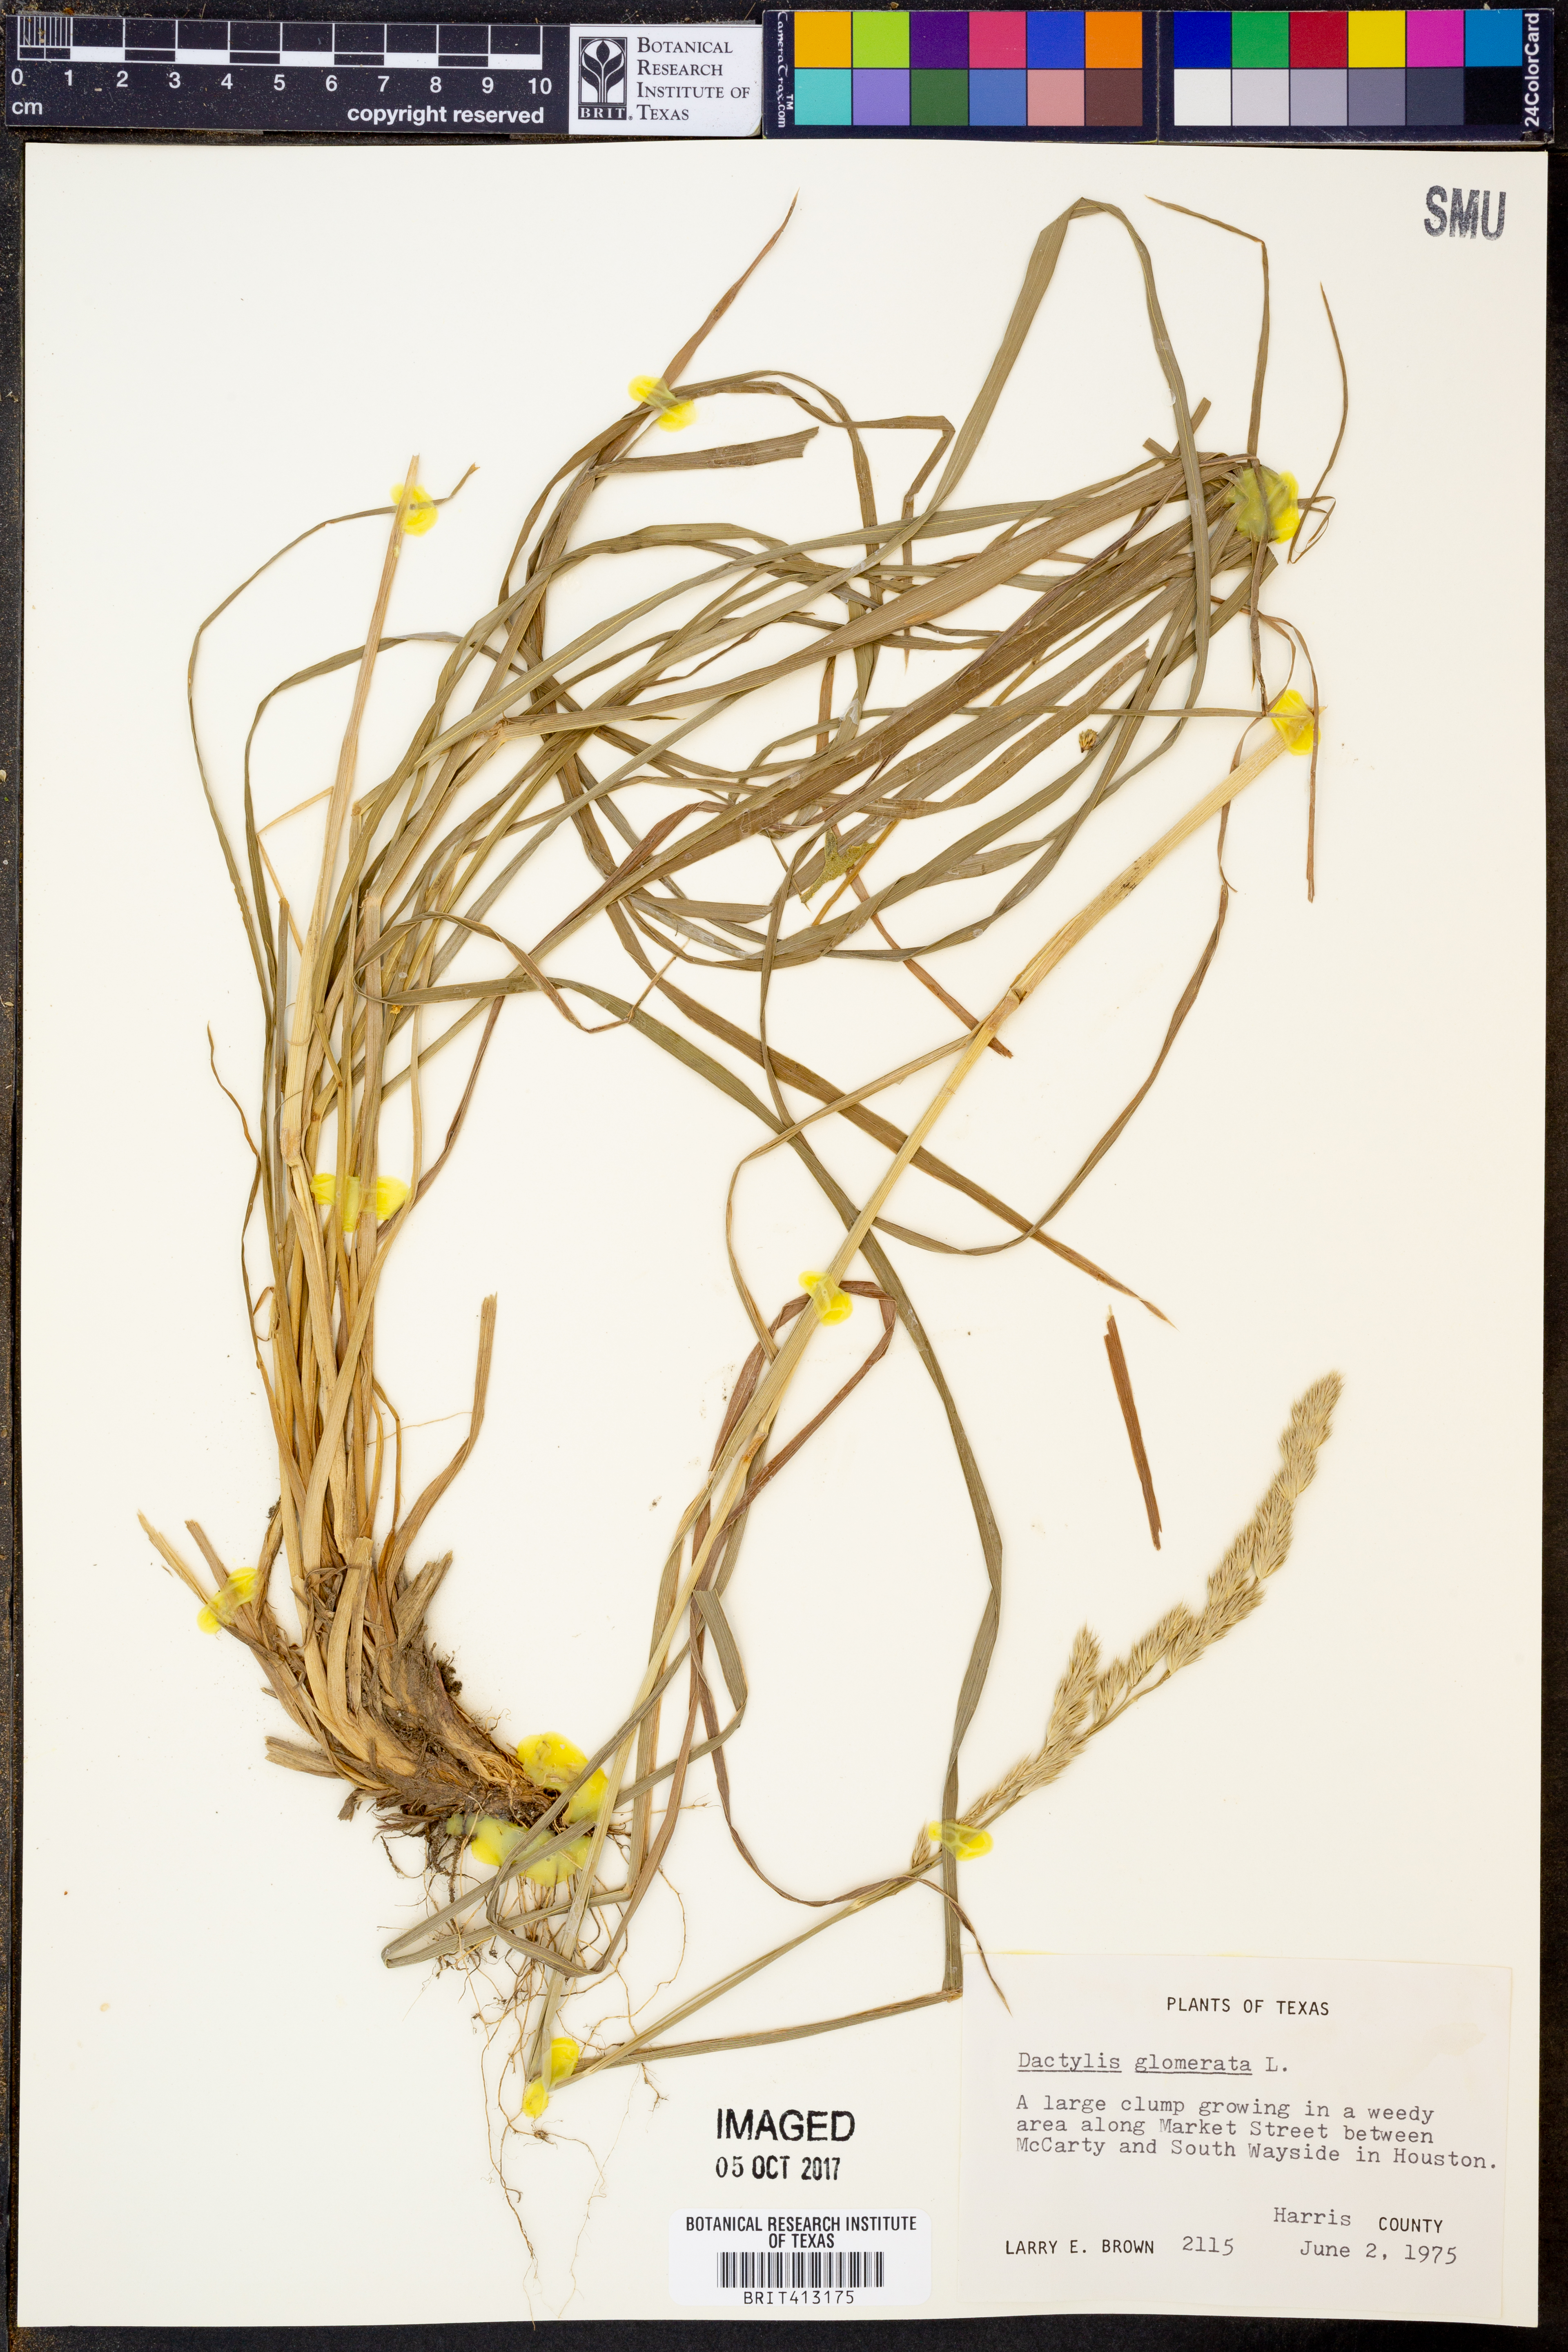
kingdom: Plantae
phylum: Tracheophyta
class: Liliopsida
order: Poales
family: Poaceae
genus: Dactylis
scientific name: Dactylis glomerata
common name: Orchardgrass
